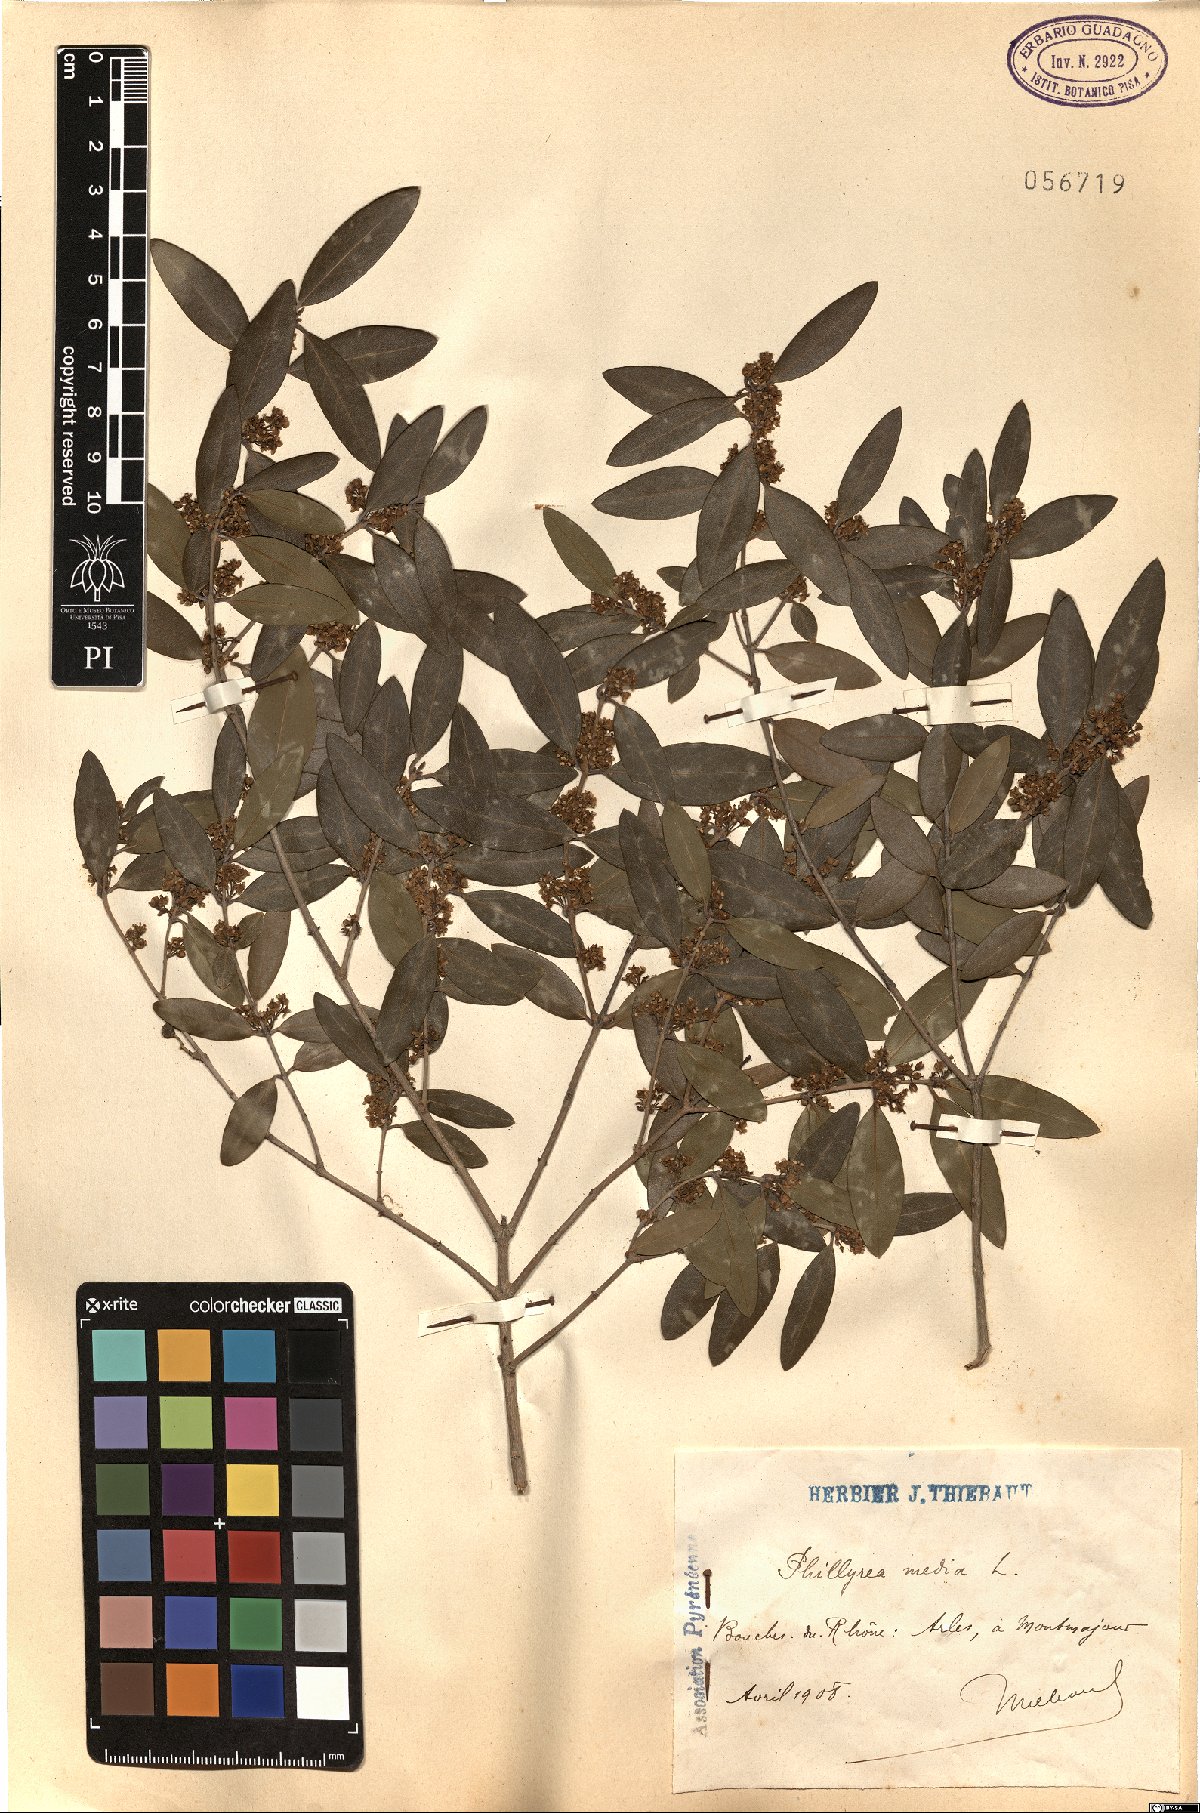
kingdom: Plantae
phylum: Tracheophyta
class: Magnoliopsida
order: Lamiales
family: Oleaceae
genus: Phillyrea
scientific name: Phillyrea latifolia
